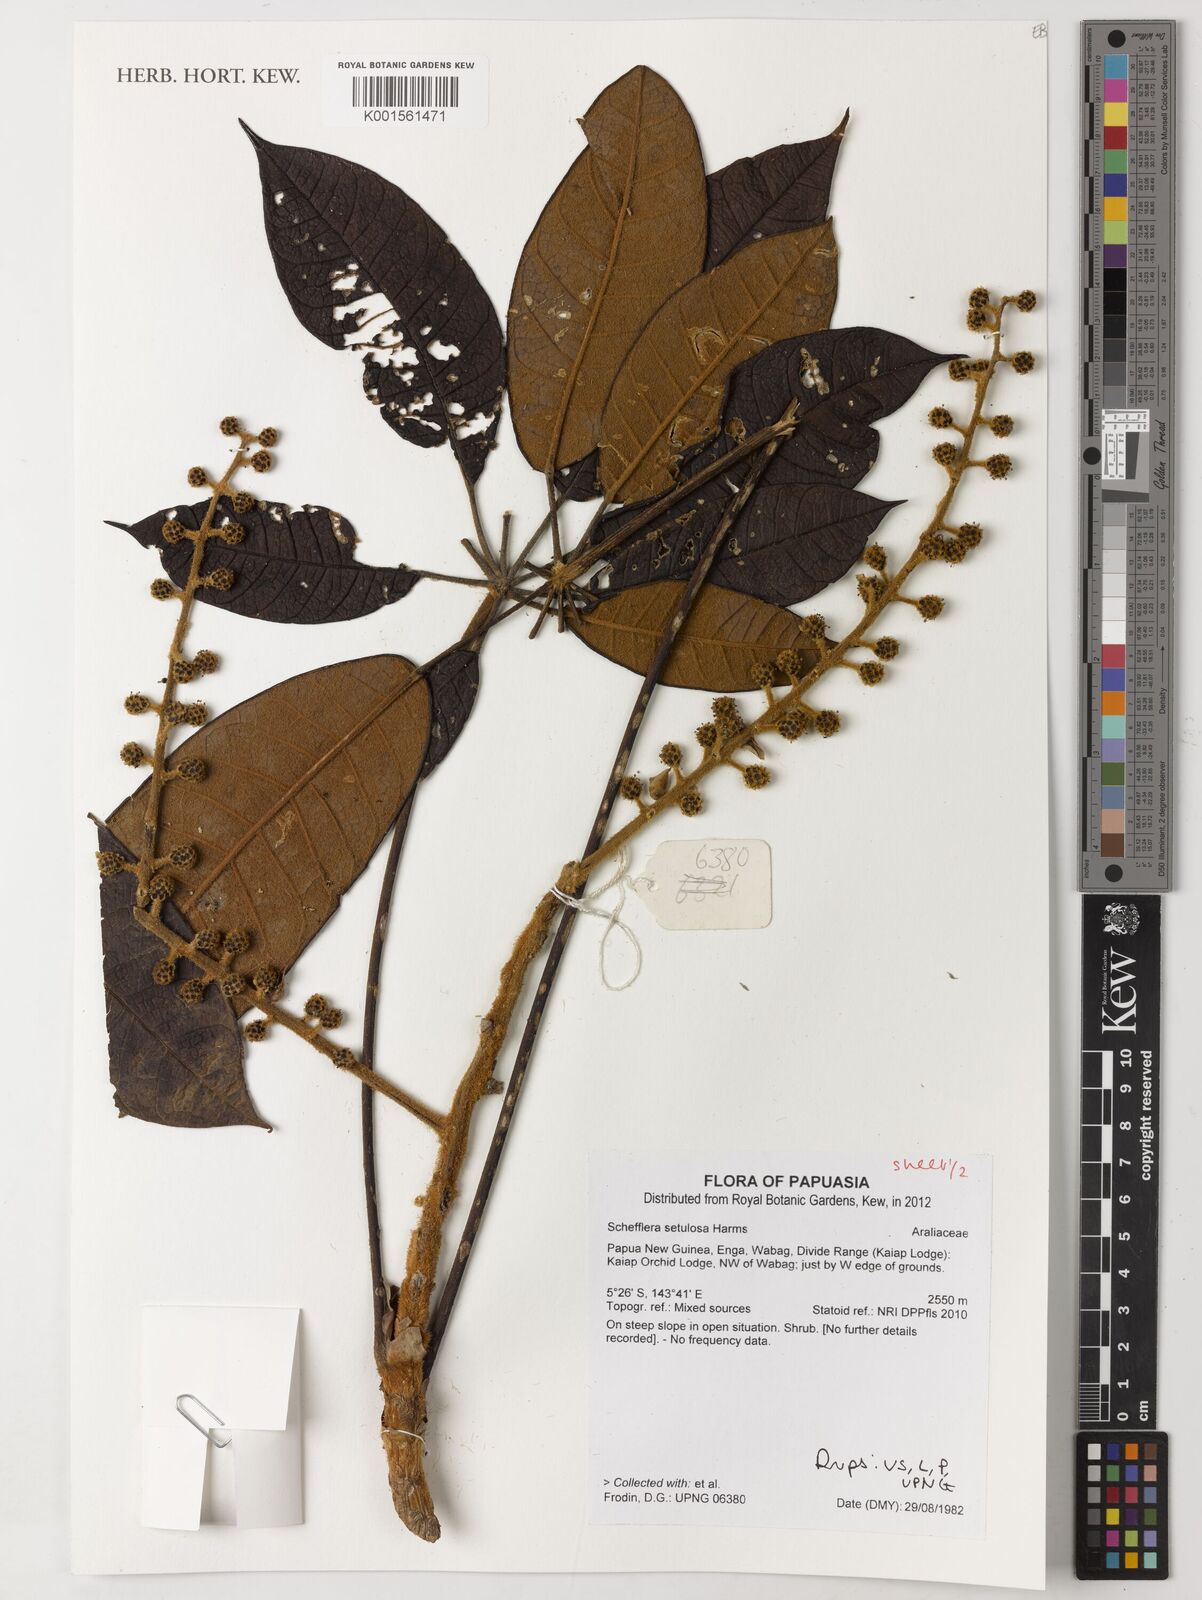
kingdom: Plantae
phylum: Tracheophyta
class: Magnoliopsida
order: Apiales
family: Araliaceae
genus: Heptapleurum
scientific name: Heptapleurum setulosum
